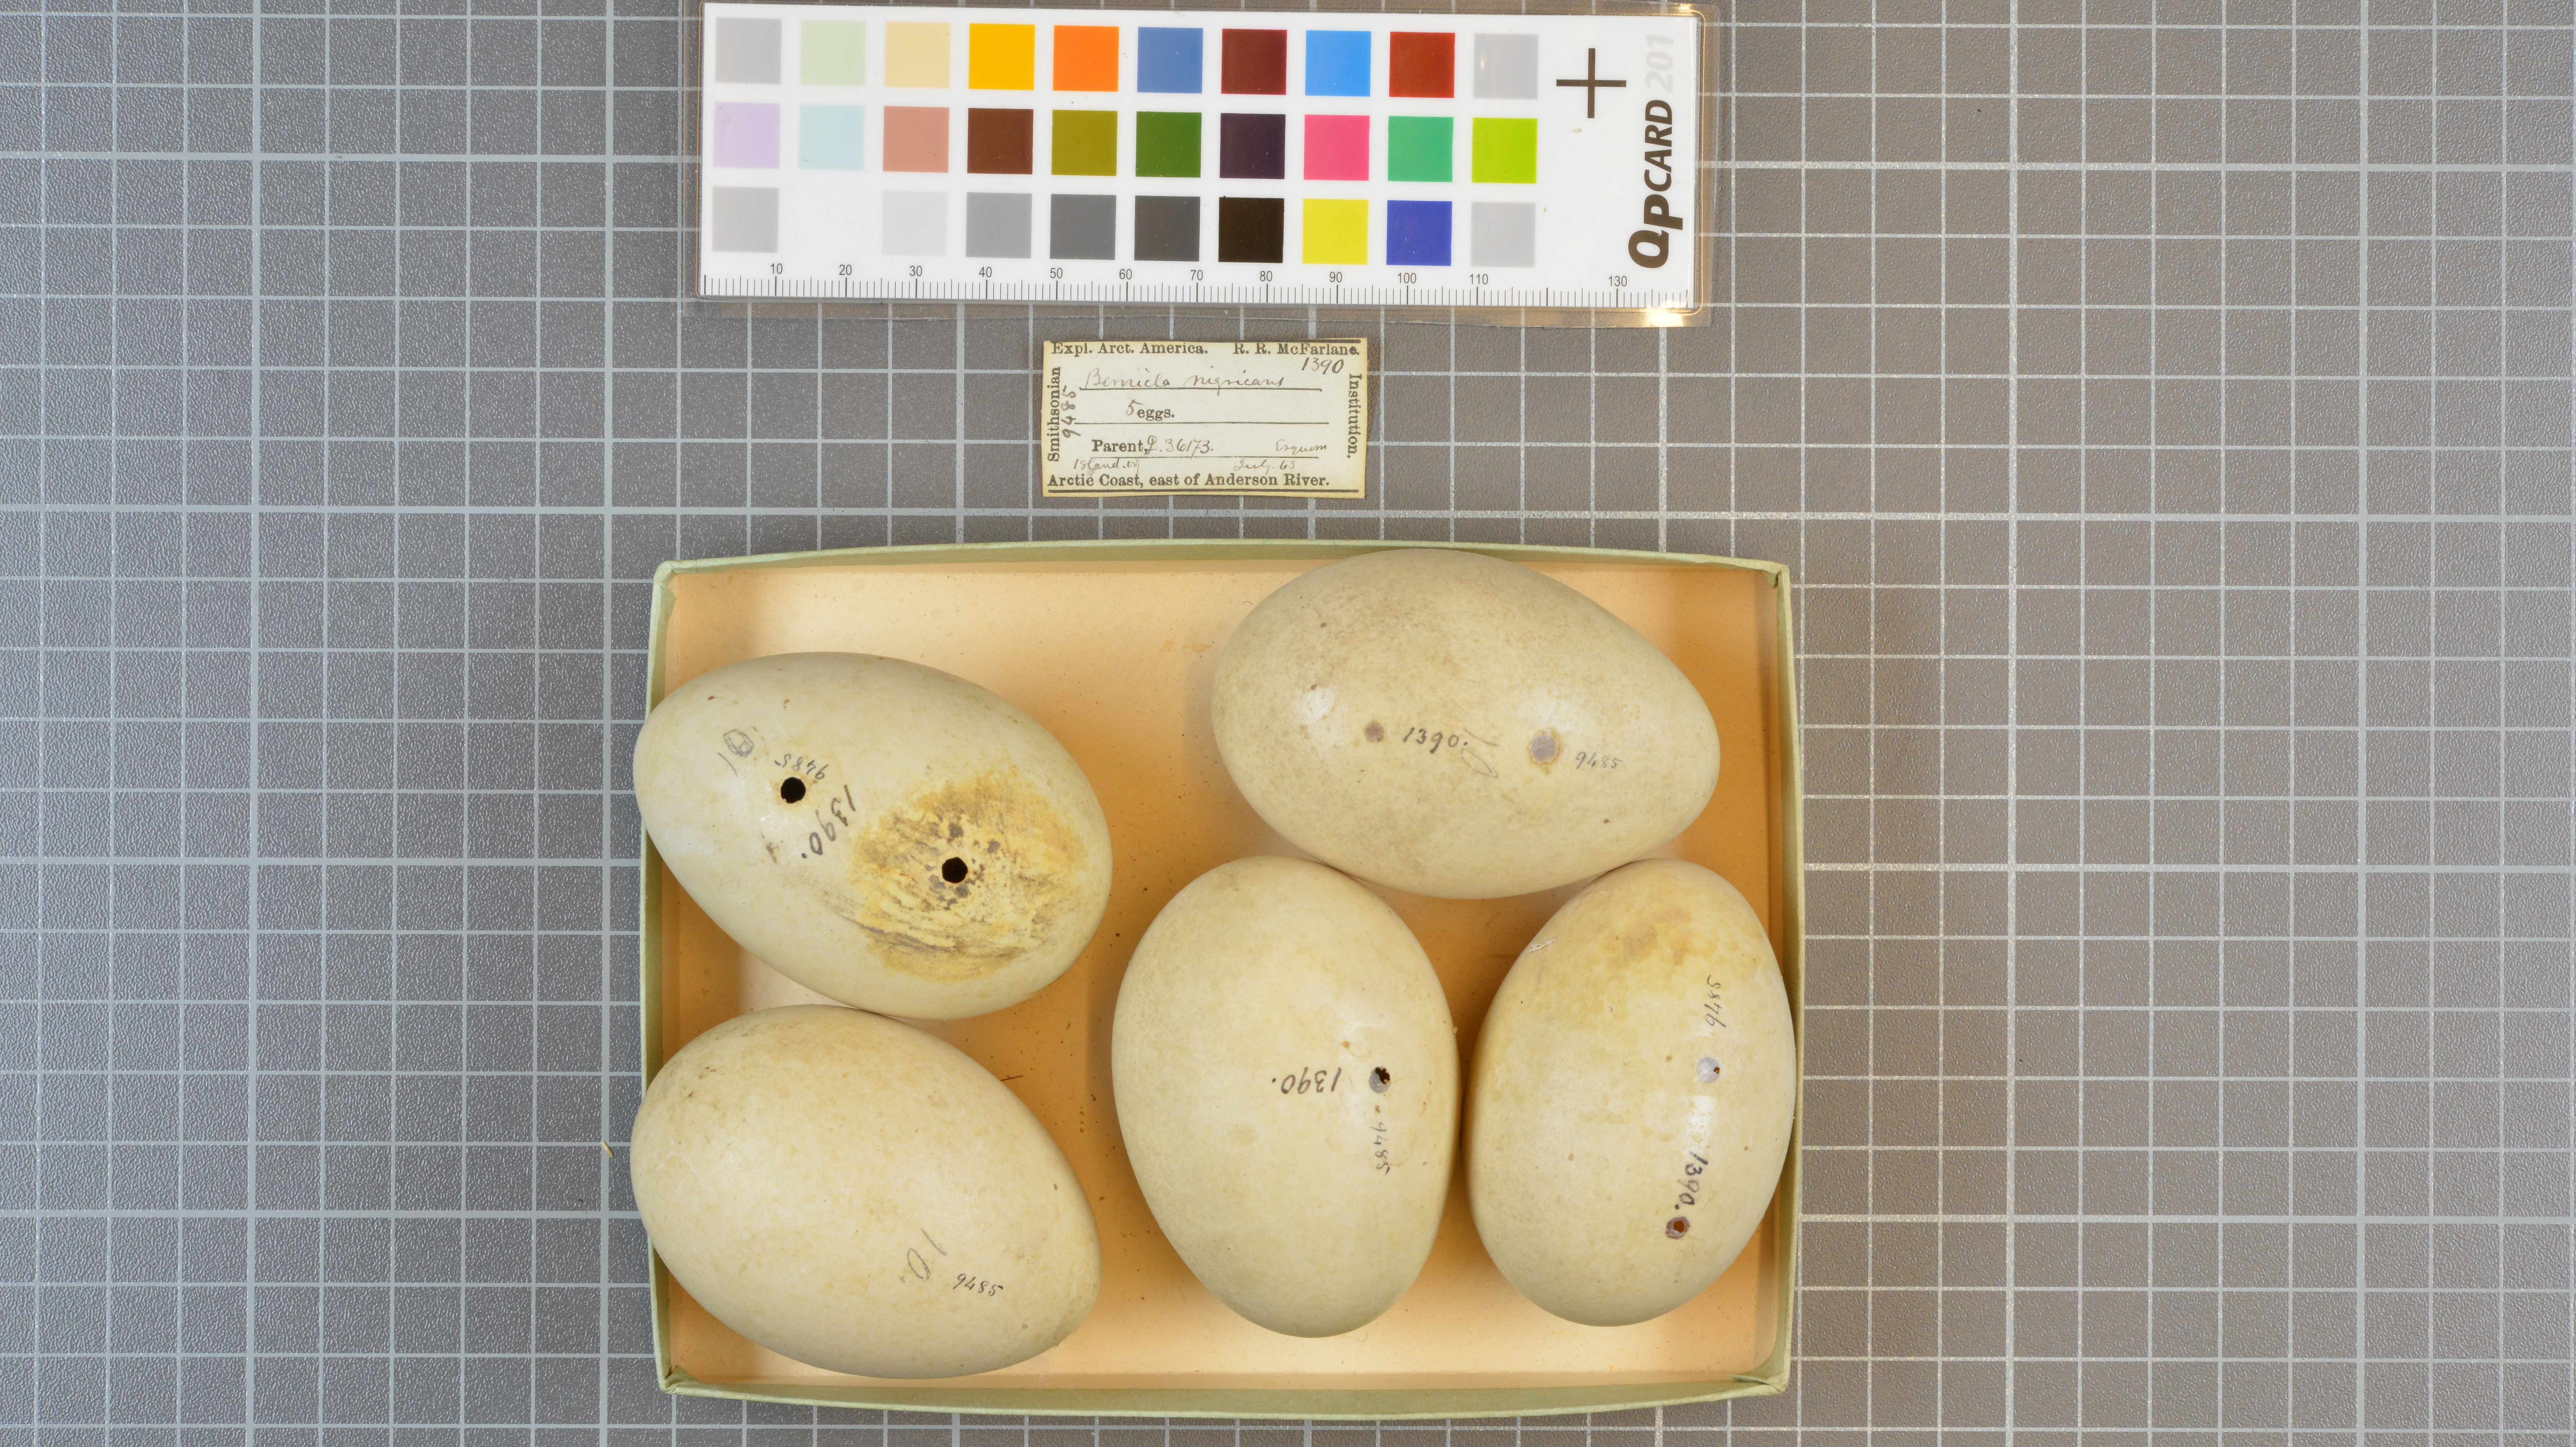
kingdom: Animalia
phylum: Chordata
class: Aves
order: Anseriformes
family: Anatidae
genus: Branta
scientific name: Branta bernicla
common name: Brant goose
